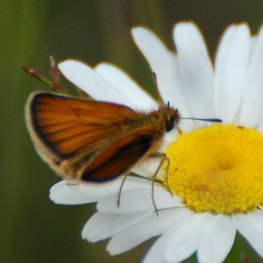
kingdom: Animalia
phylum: Arthropoda
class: Insecta
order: Lepidoptera
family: Hesperiidae
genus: Thymelicus
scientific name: Thymelicus lineola
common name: European Skipper
